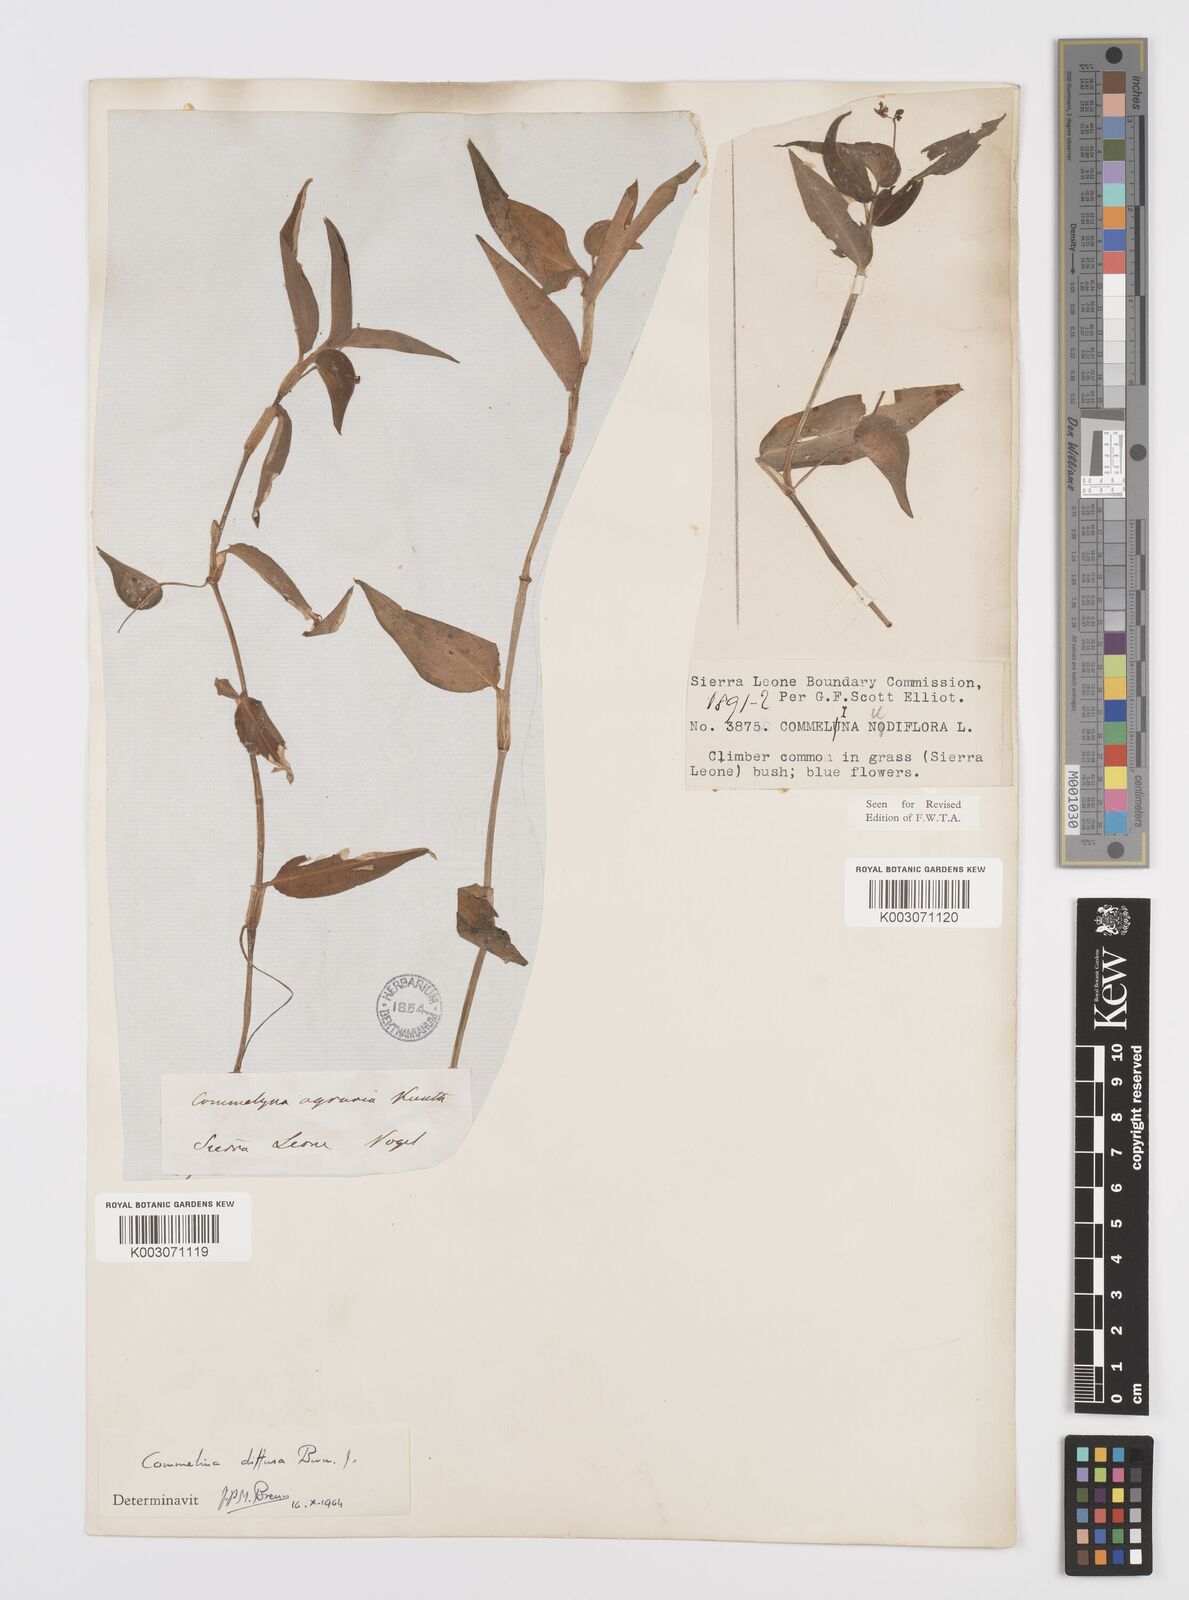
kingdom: Plantae
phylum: Tracheophyta
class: Liliopsida
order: Commelinales
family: Commelinaceae
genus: Commelina
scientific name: Commelina diffusa
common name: Climbing dayflower
